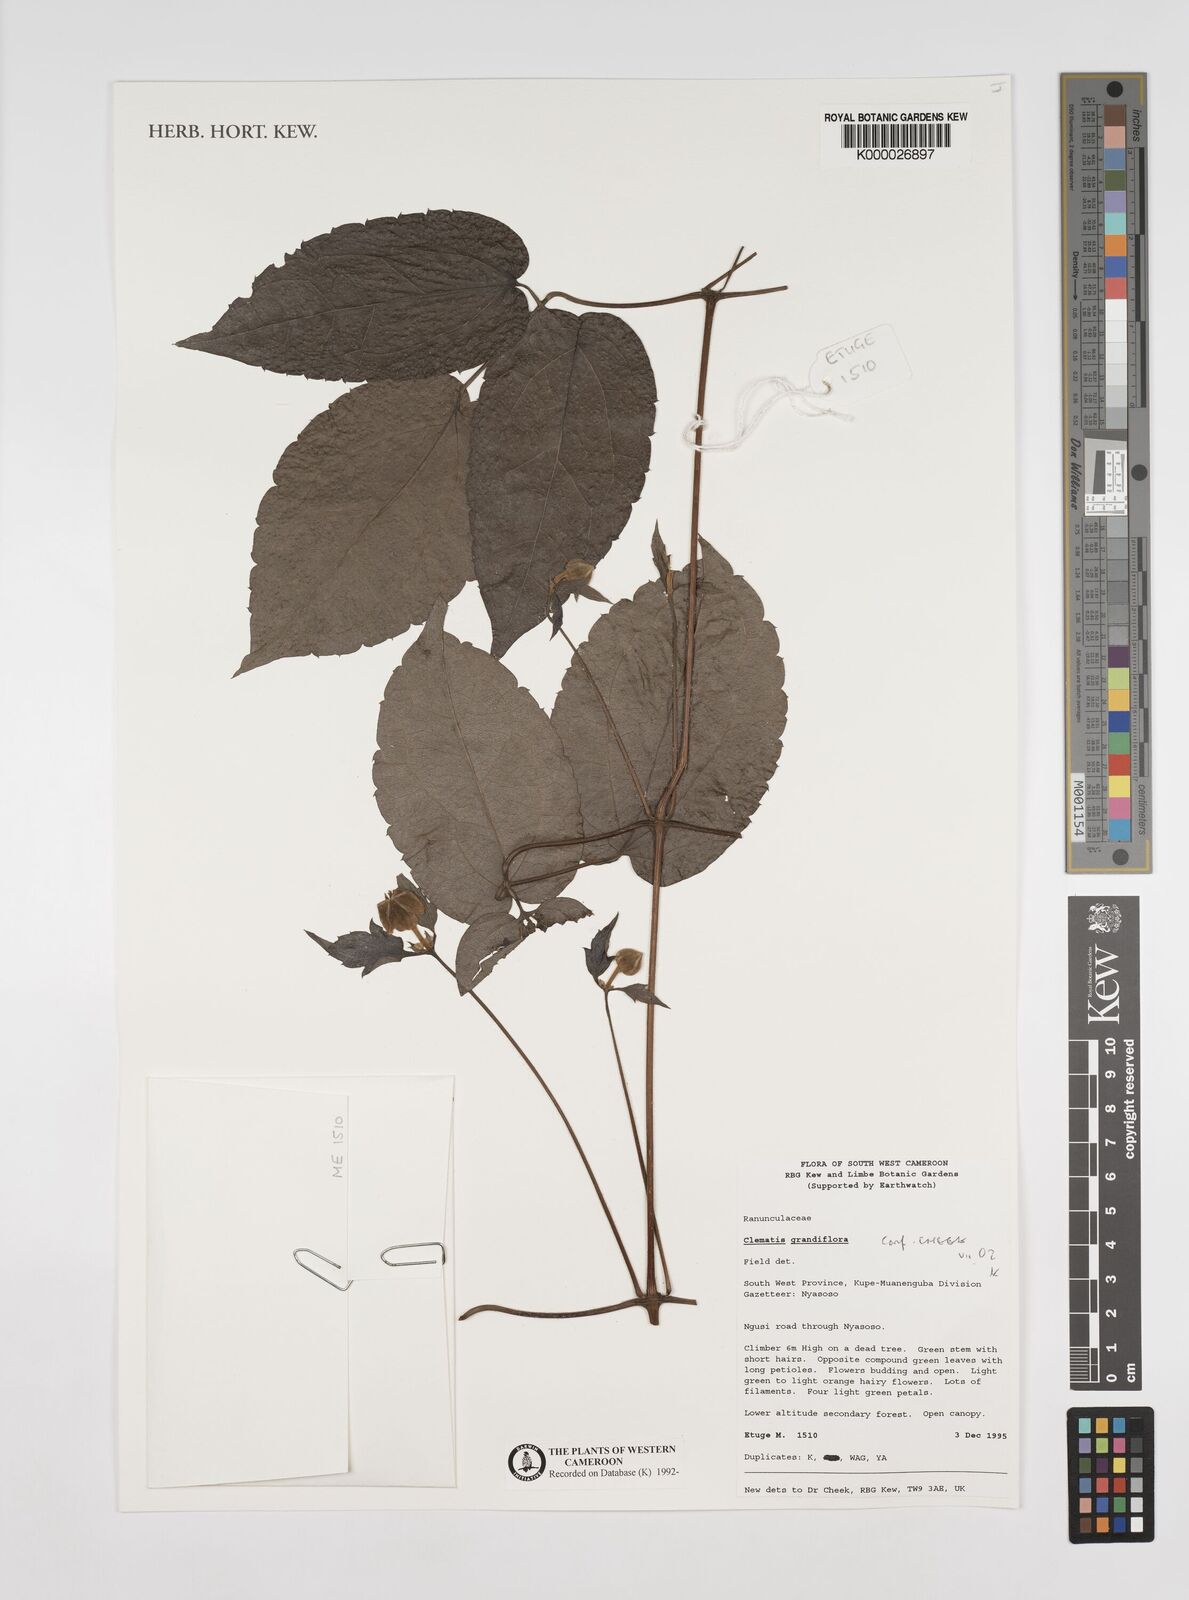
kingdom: Plantae
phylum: Tracheophyta
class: Magnoliopsida
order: Ranunculales
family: Ranunculaceae
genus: Clematis
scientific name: Clematis grandiflora
